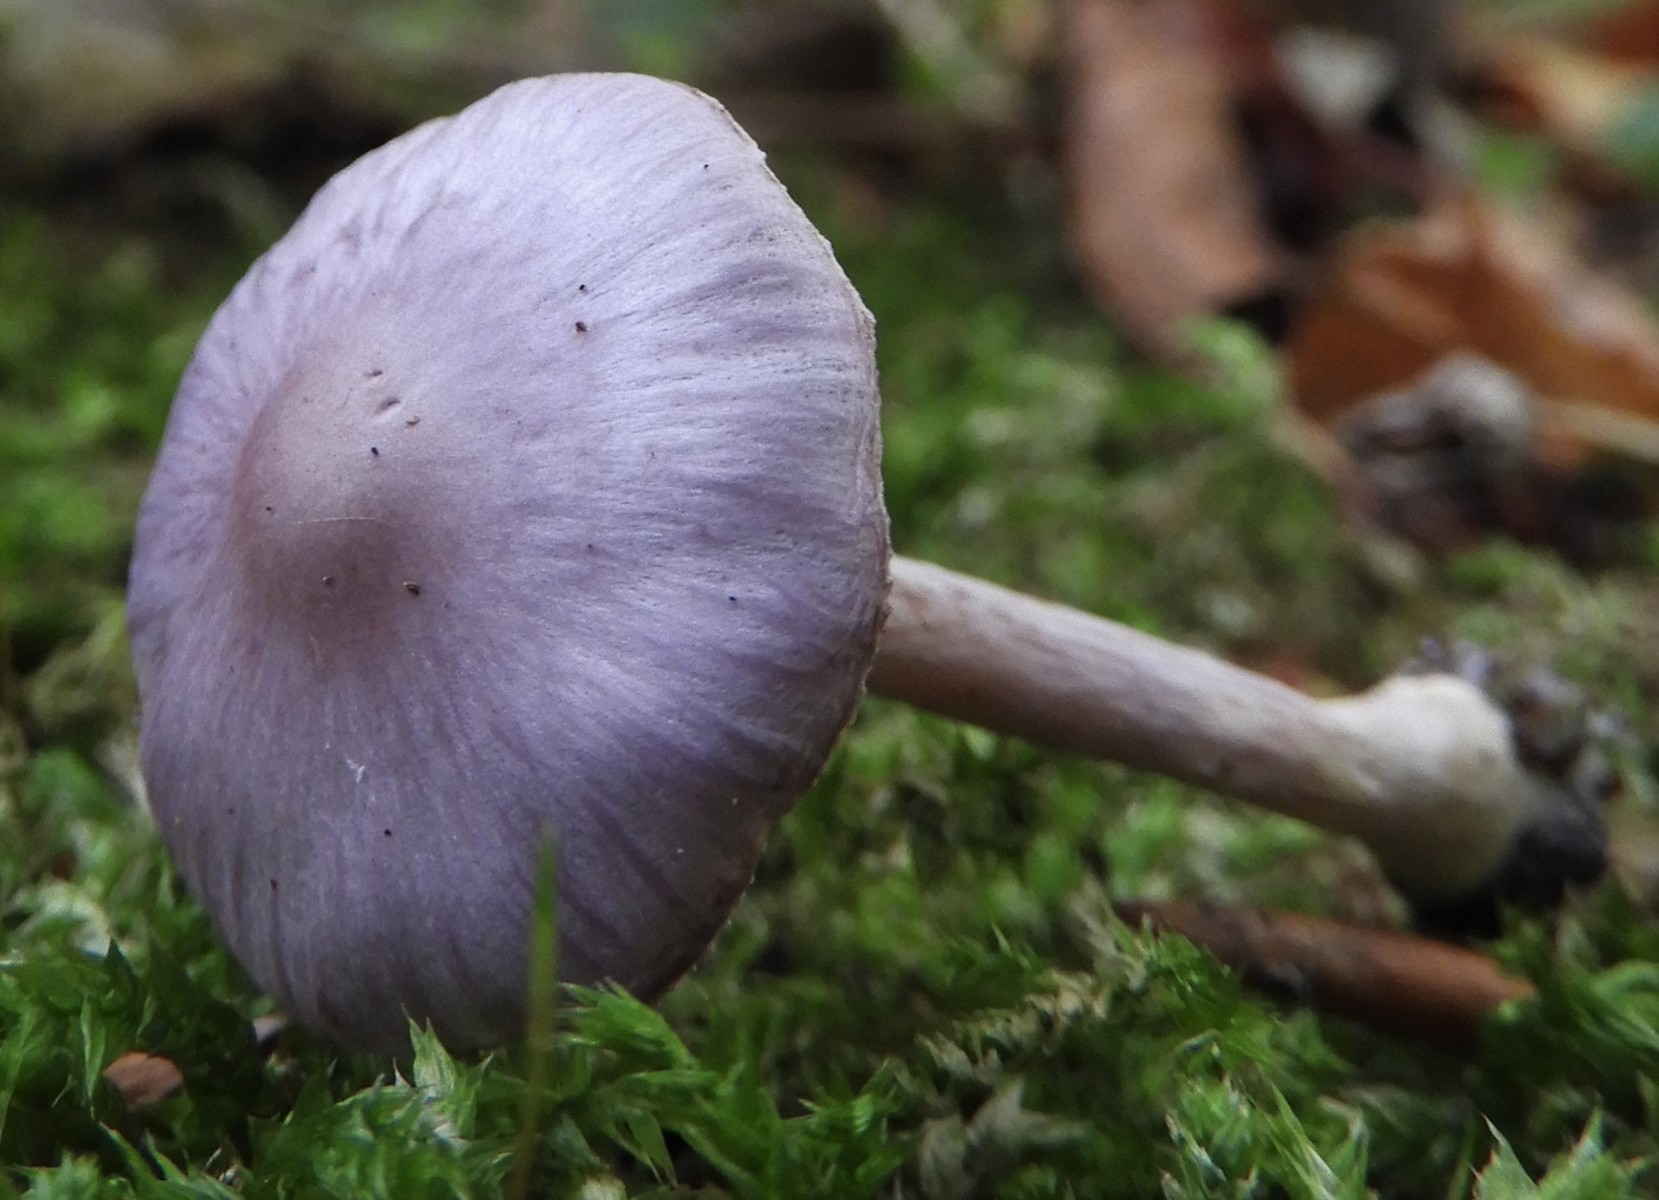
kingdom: Fungi
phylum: Basidiomycota
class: Agaricomycetes
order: Agaricales
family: Inocybaceae
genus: Inocybe
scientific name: Inocybe geophylla
